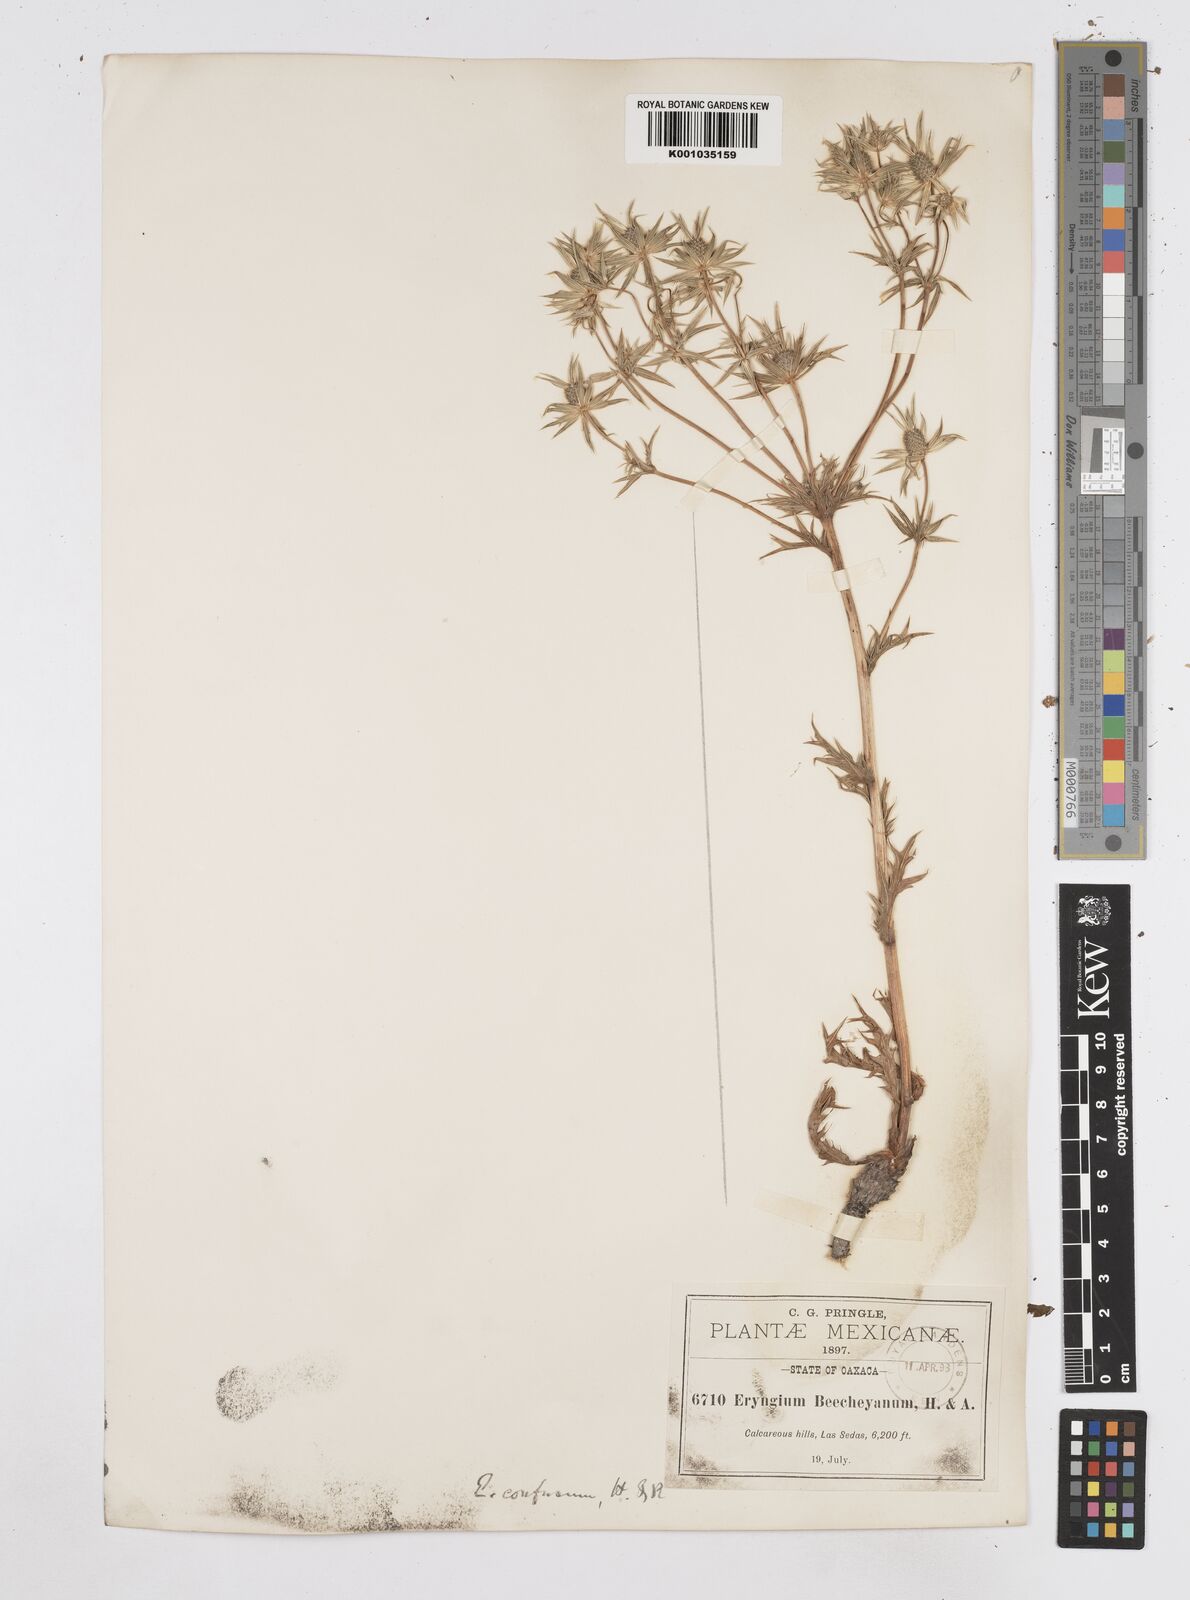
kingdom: Plantae
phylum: Tracheophyta
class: Magnoliopsida
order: Apiales
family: Apiaceae
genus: Eryngium
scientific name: Eryngium beecheyanum
